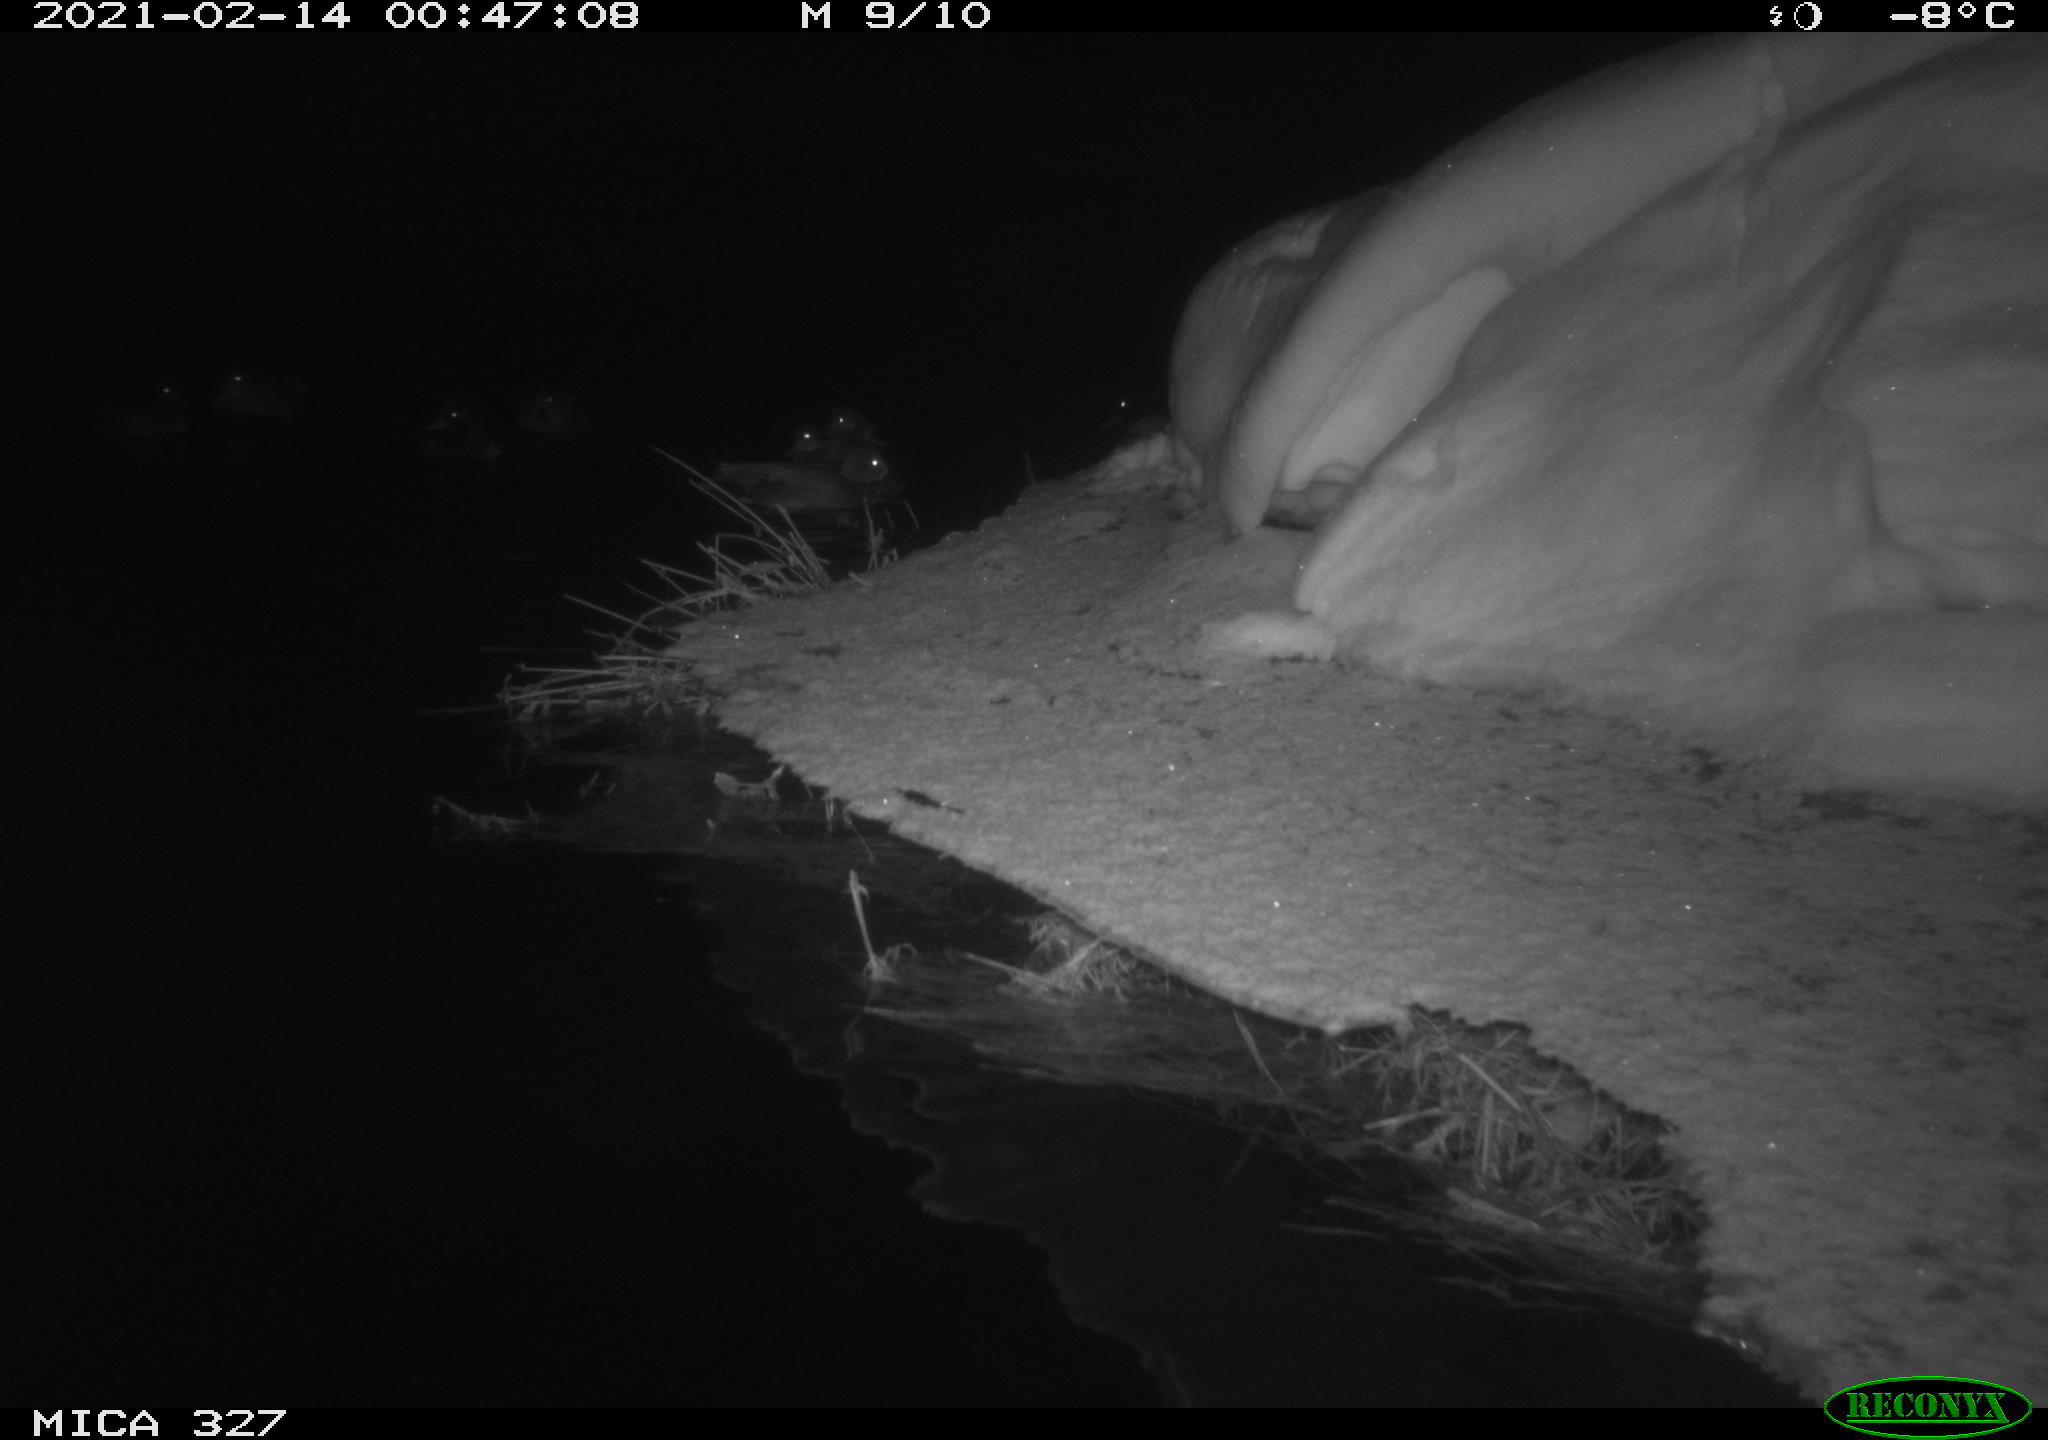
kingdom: Animalia
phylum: Chordata
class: Aves
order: Anseriformes
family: Anatidae
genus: Anas
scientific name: Anas
